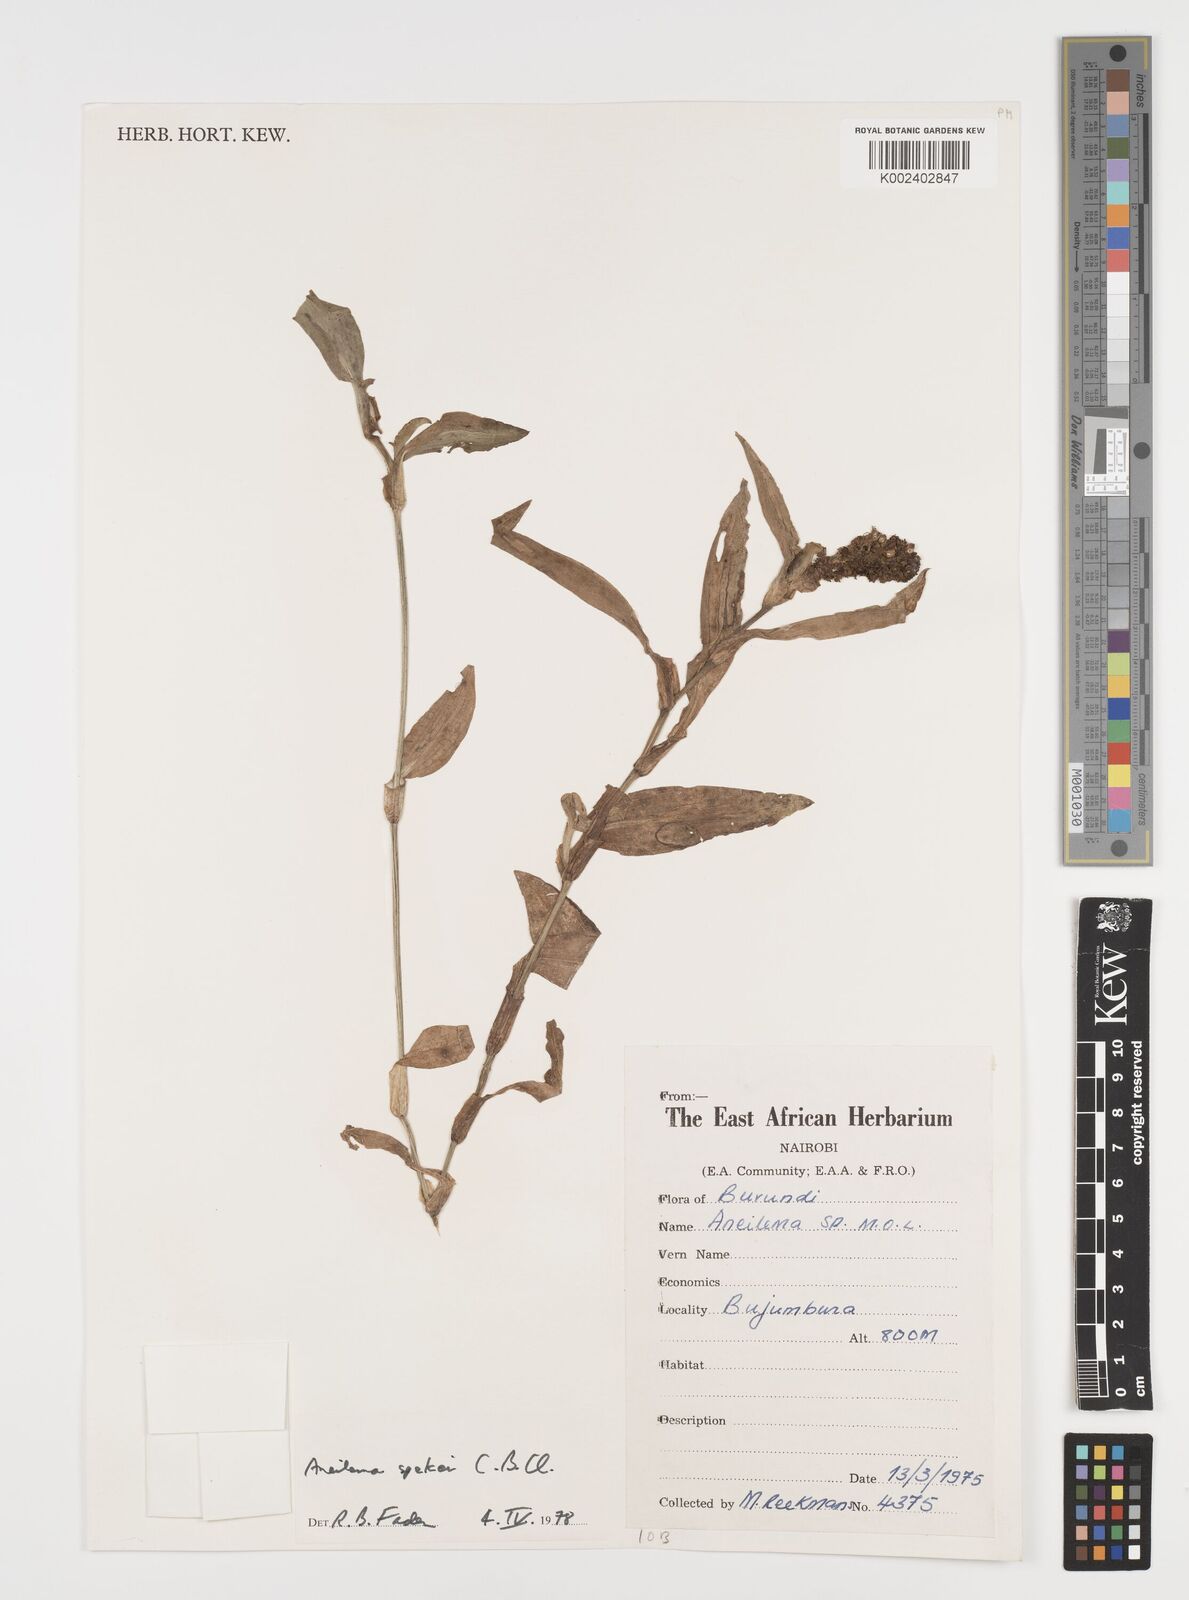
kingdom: Plantae
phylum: Tracheophyta
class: Liliopsida
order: Commelinales
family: Commelinaceae
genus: Aneilema
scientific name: Aneilema spekei
